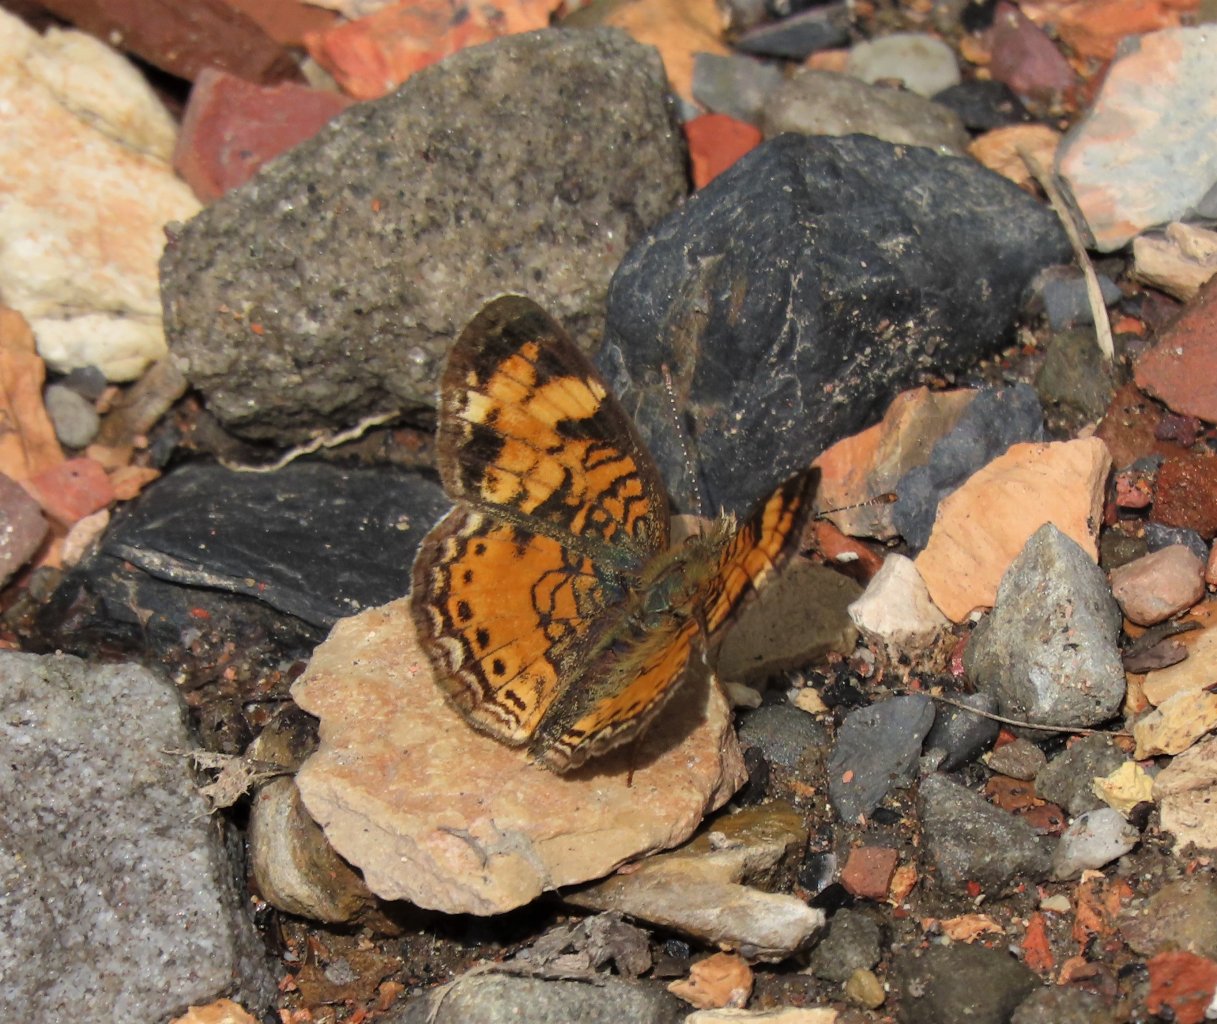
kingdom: Animalia
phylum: Arthropoda
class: Insecta
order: Lepidoptera
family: Nymphalidae
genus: Phyciodes
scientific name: Phyciodes tharos
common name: Pearl Crescent
